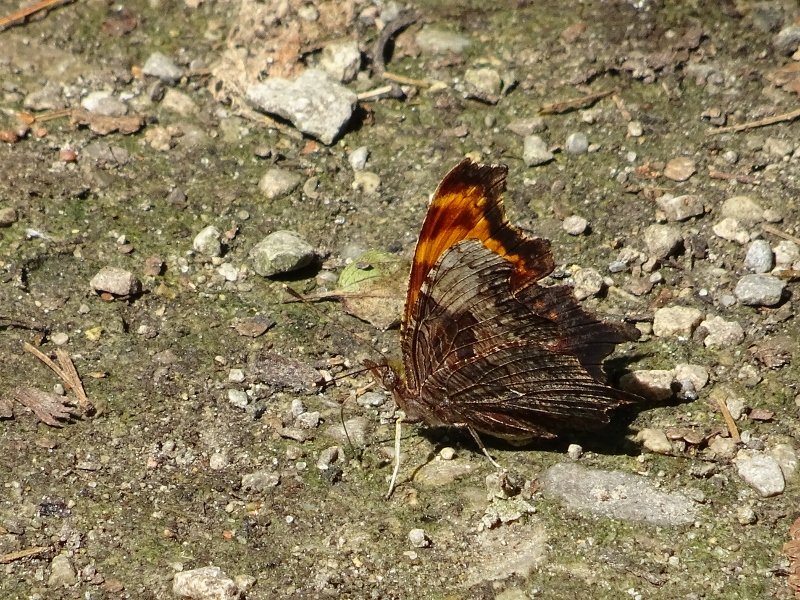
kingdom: Animalia
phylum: Arthropoda
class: Insecta
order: Lepidoptera
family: Nymphalidae
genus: Polygonia
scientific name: Polygonia progne
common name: Gray Comma
